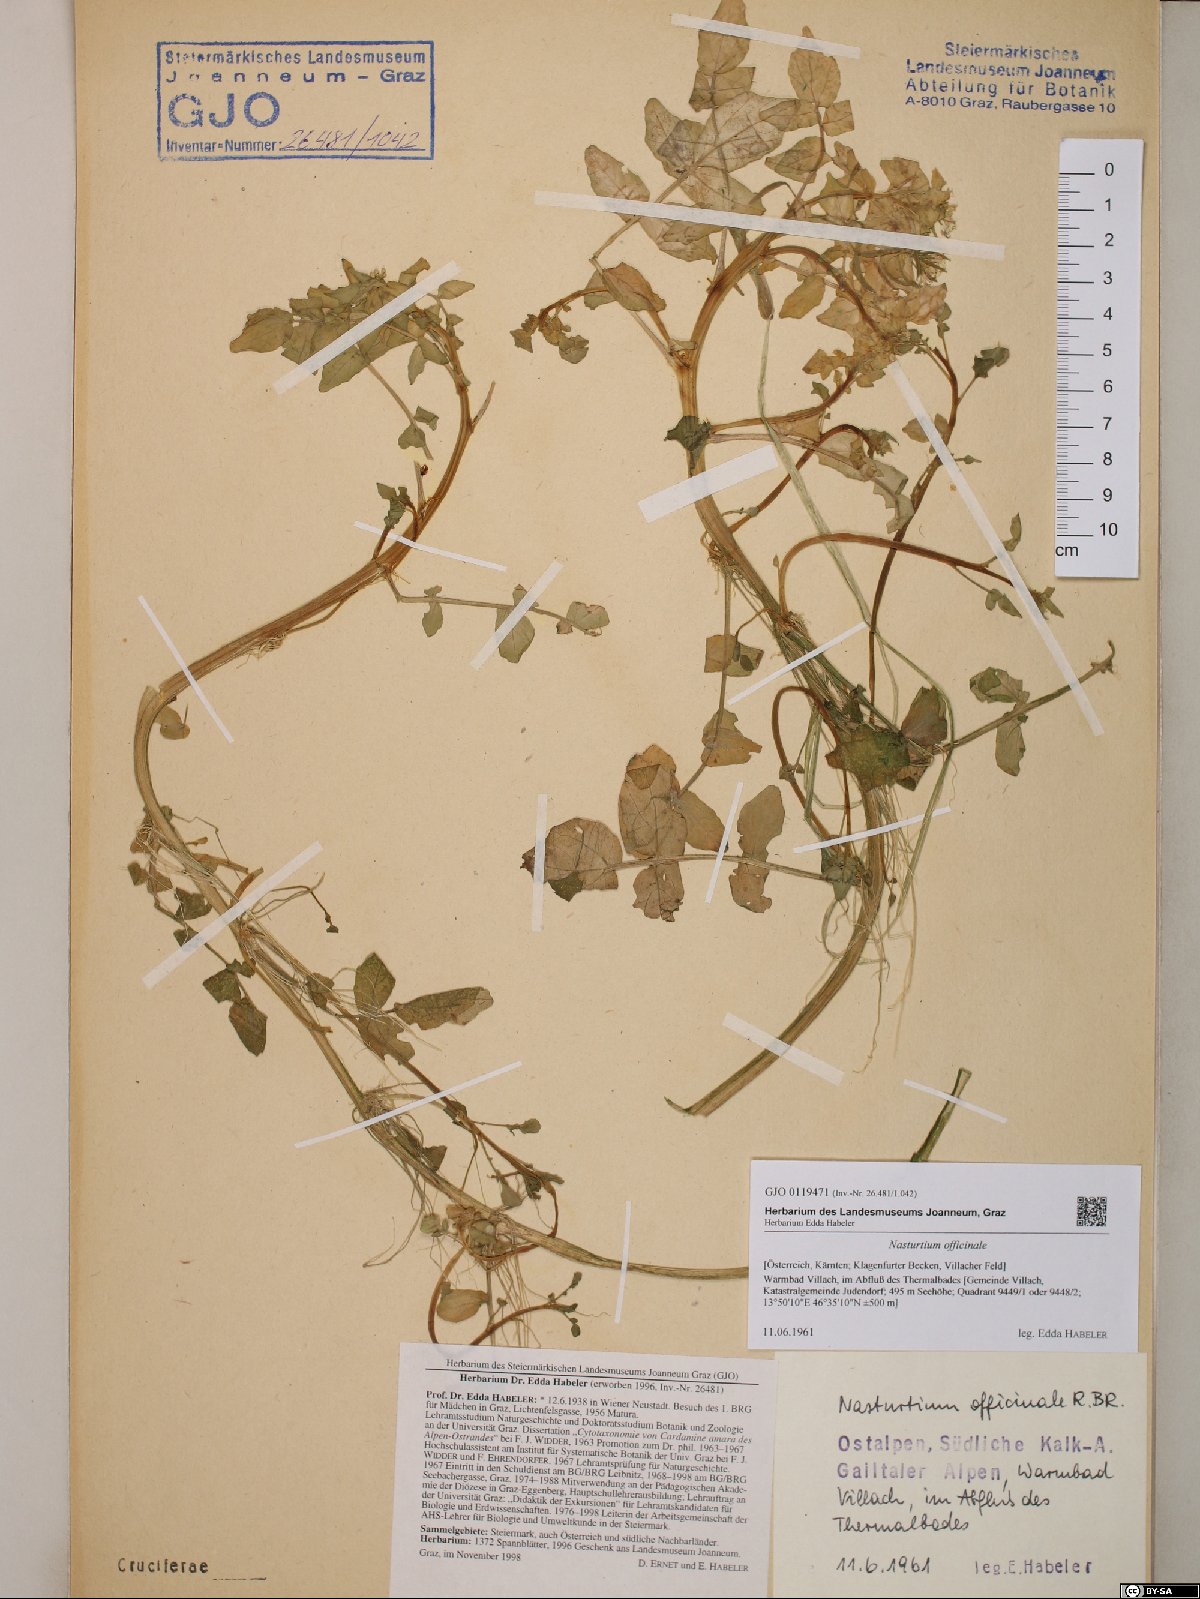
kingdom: Plantae
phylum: Tracheophyta
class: Magnoliopsida
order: Brassicales
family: Brassicaceae
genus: Nasturtium
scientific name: Nasturtium officinale
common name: Watercress
